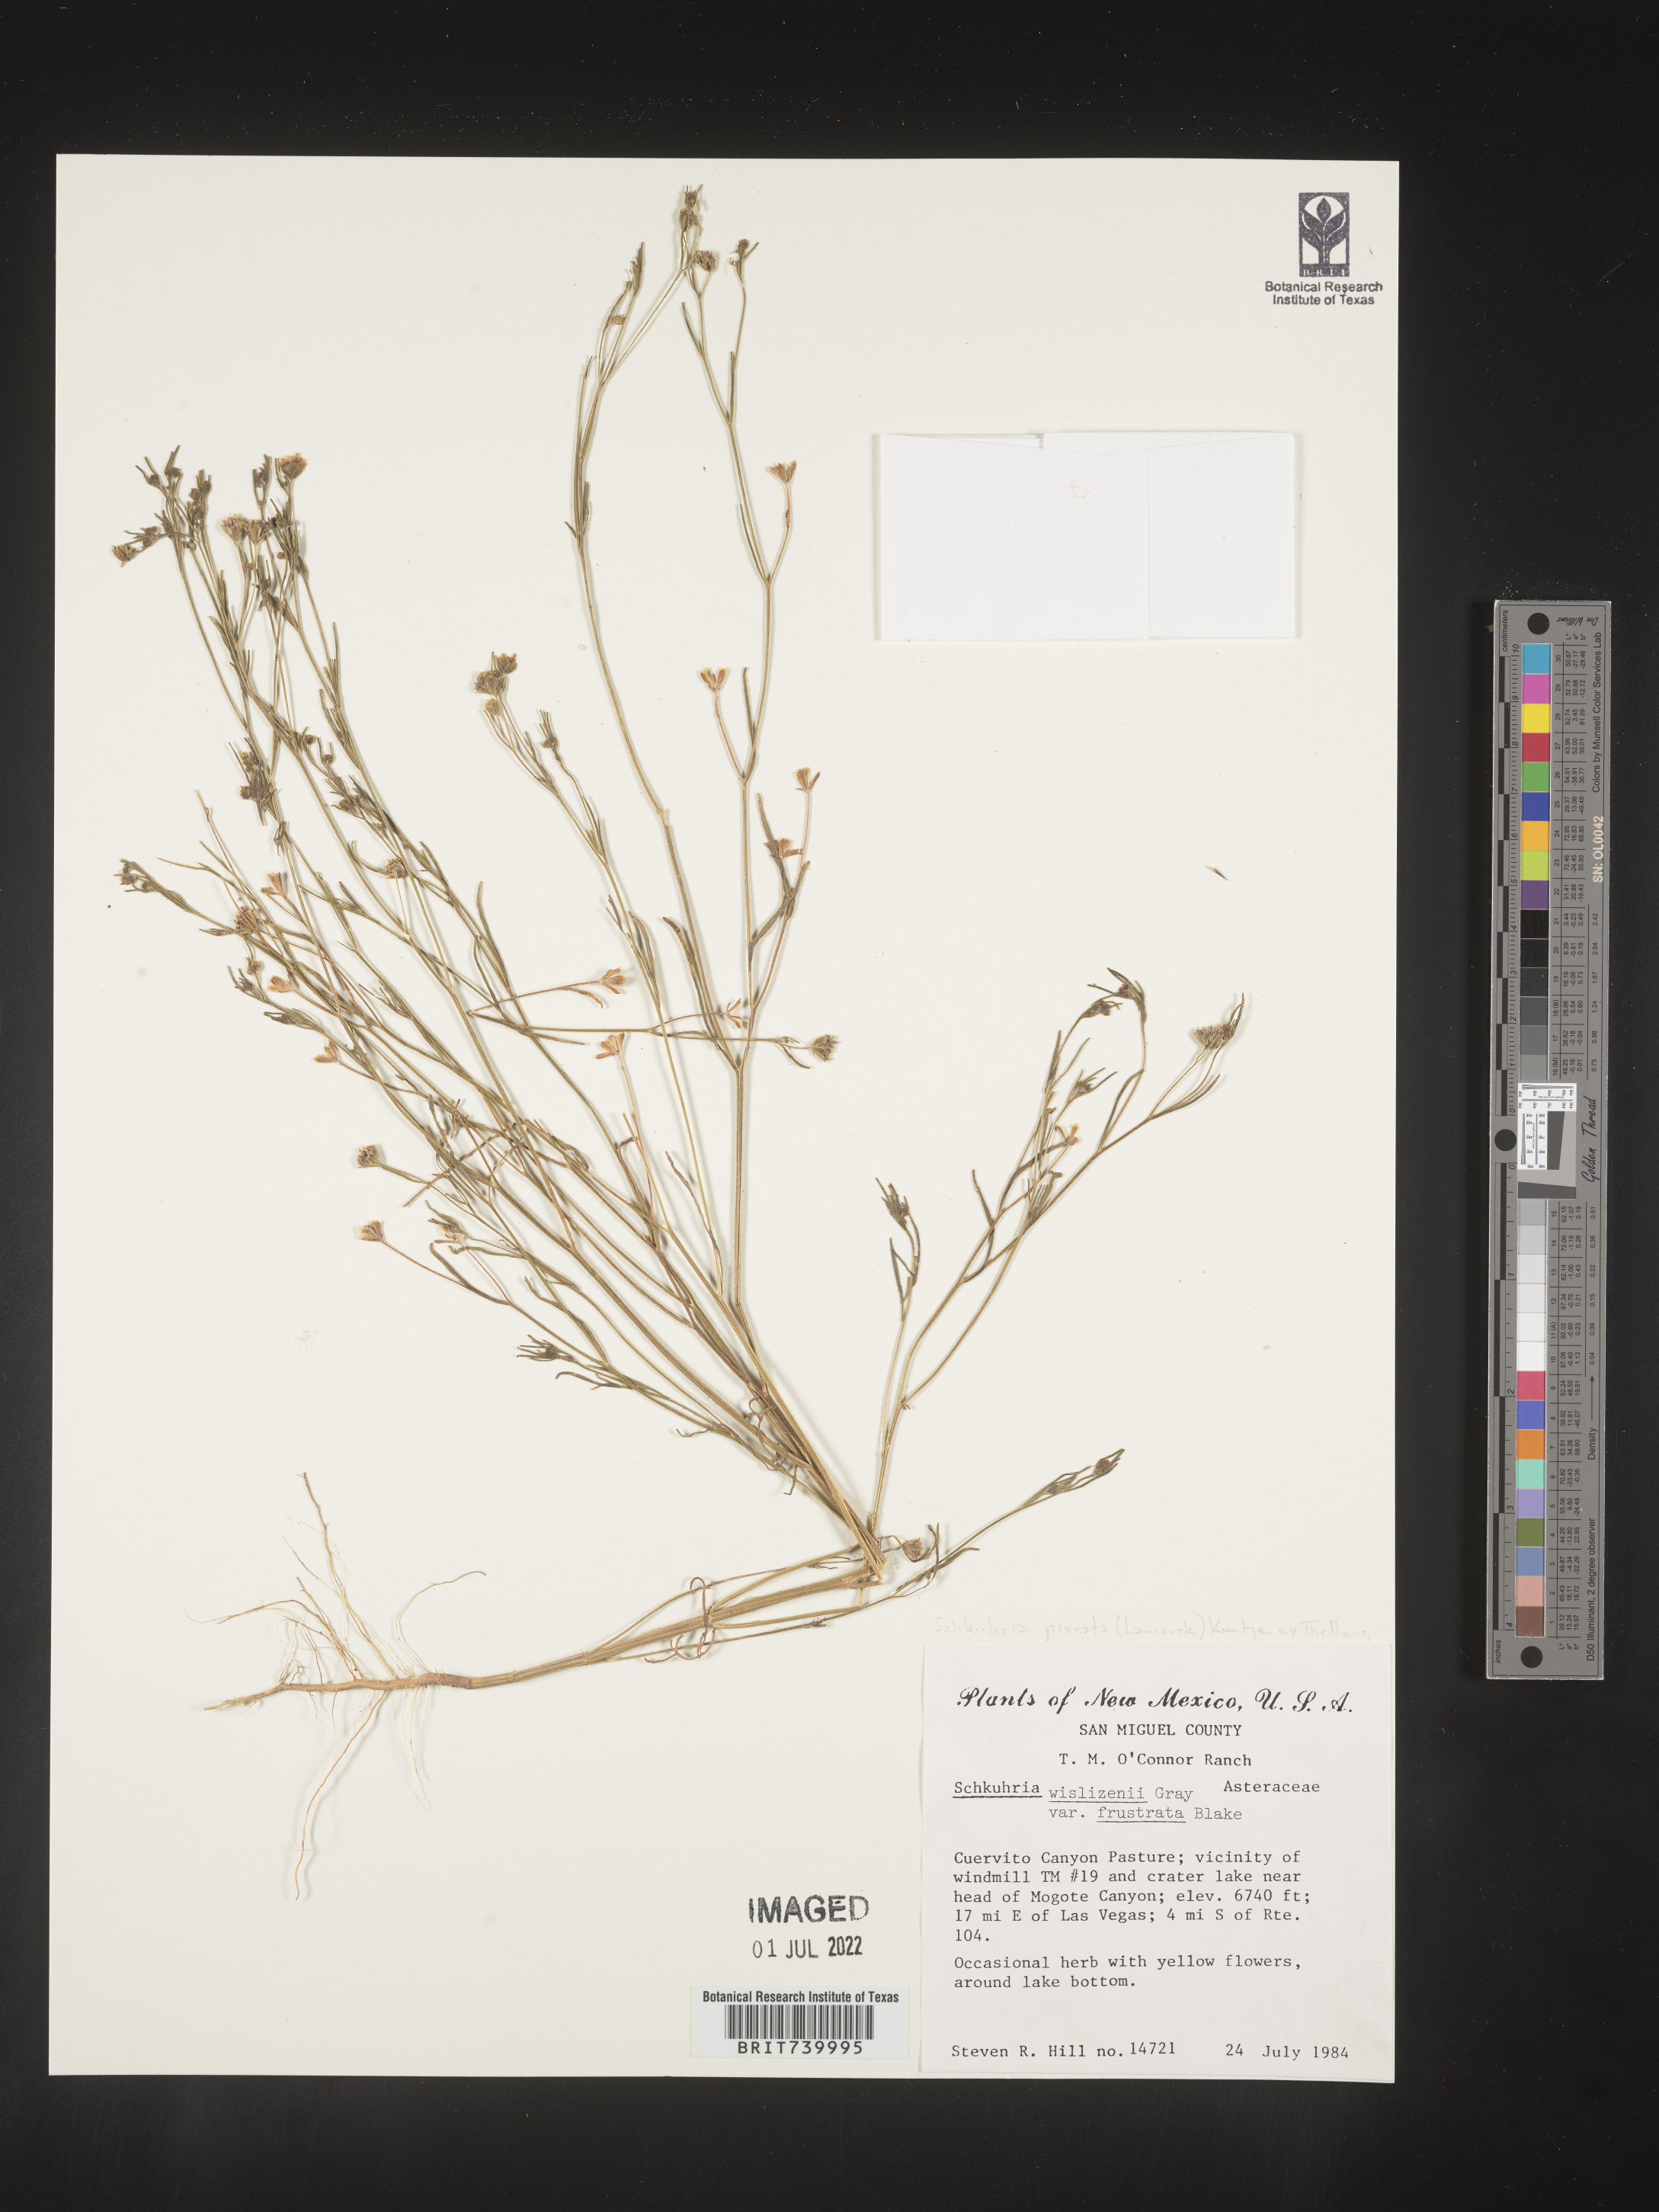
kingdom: Plantae
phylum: Tracheophyta
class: Magnoliopsida
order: Asterales
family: Asteraceae
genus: Schkuhria
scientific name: Schkuhria
